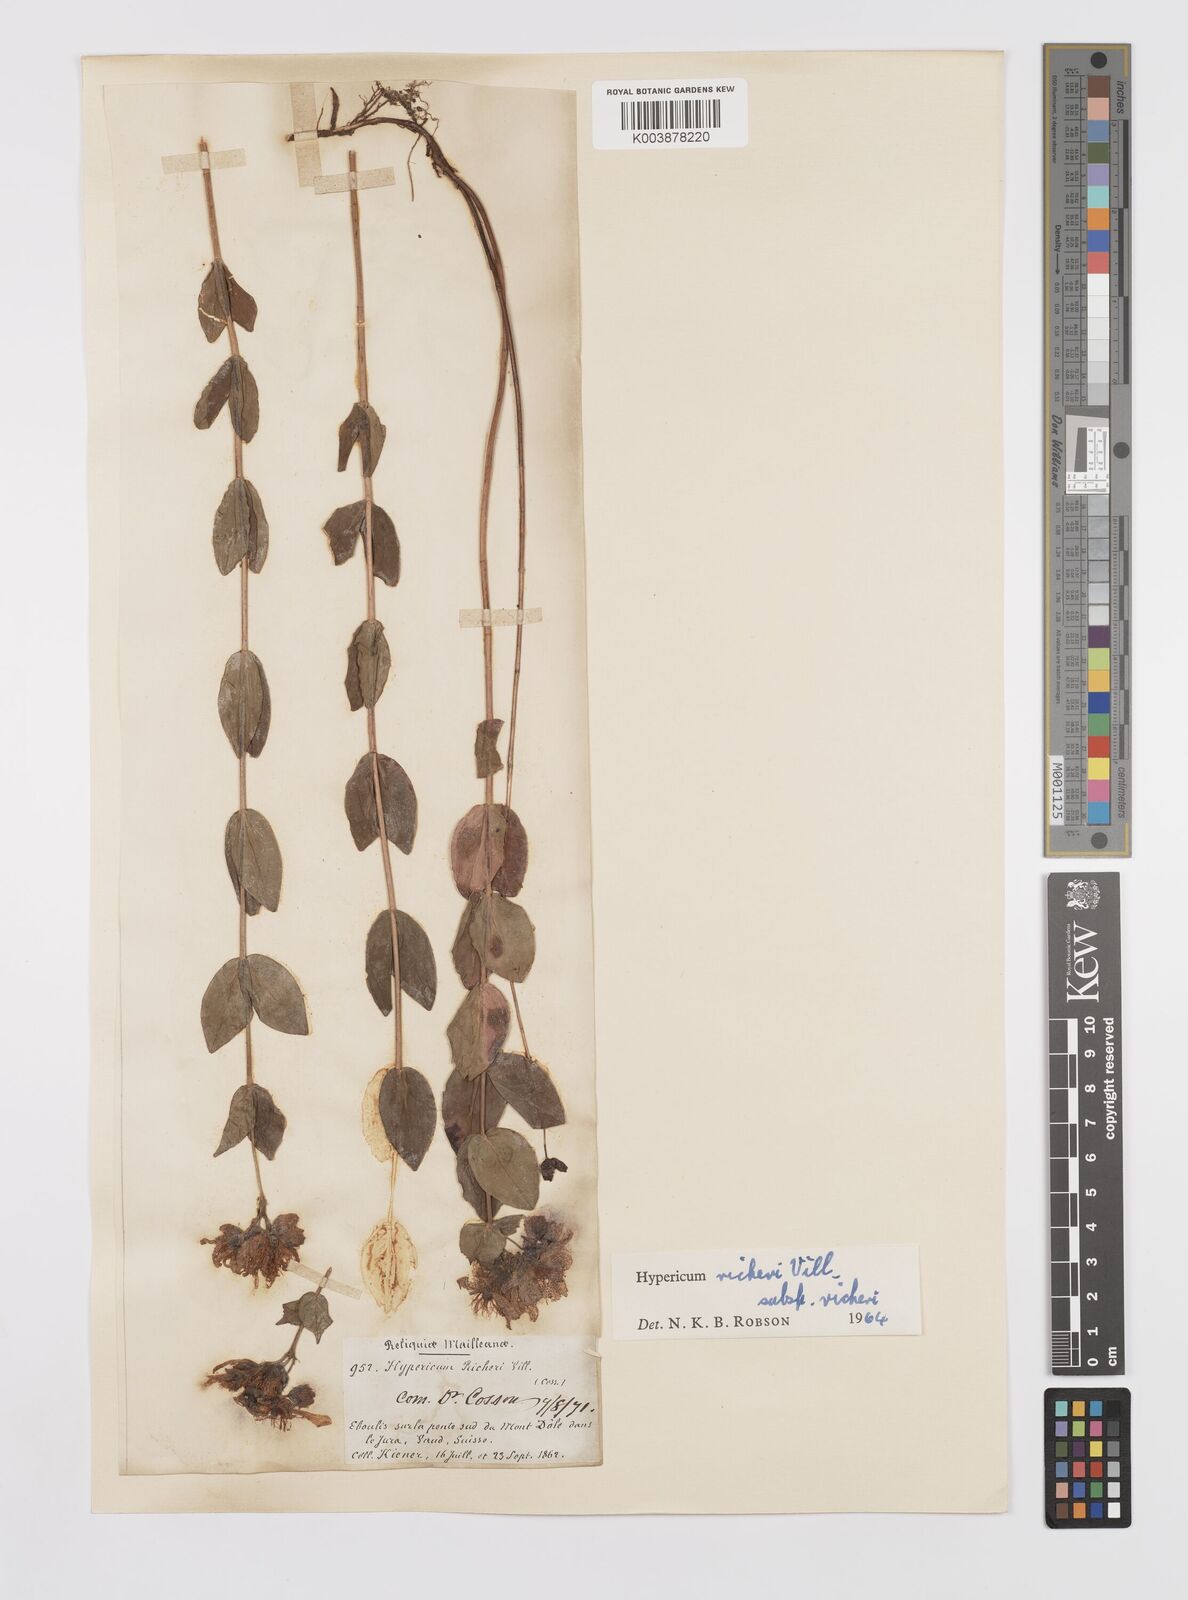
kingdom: Plantae
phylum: Tracheophyta
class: Magnoliopsida
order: Malpighiales
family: Hypericaceae
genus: Hypericum
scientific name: Hypericum richeri
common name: Alpine st john's-wort
